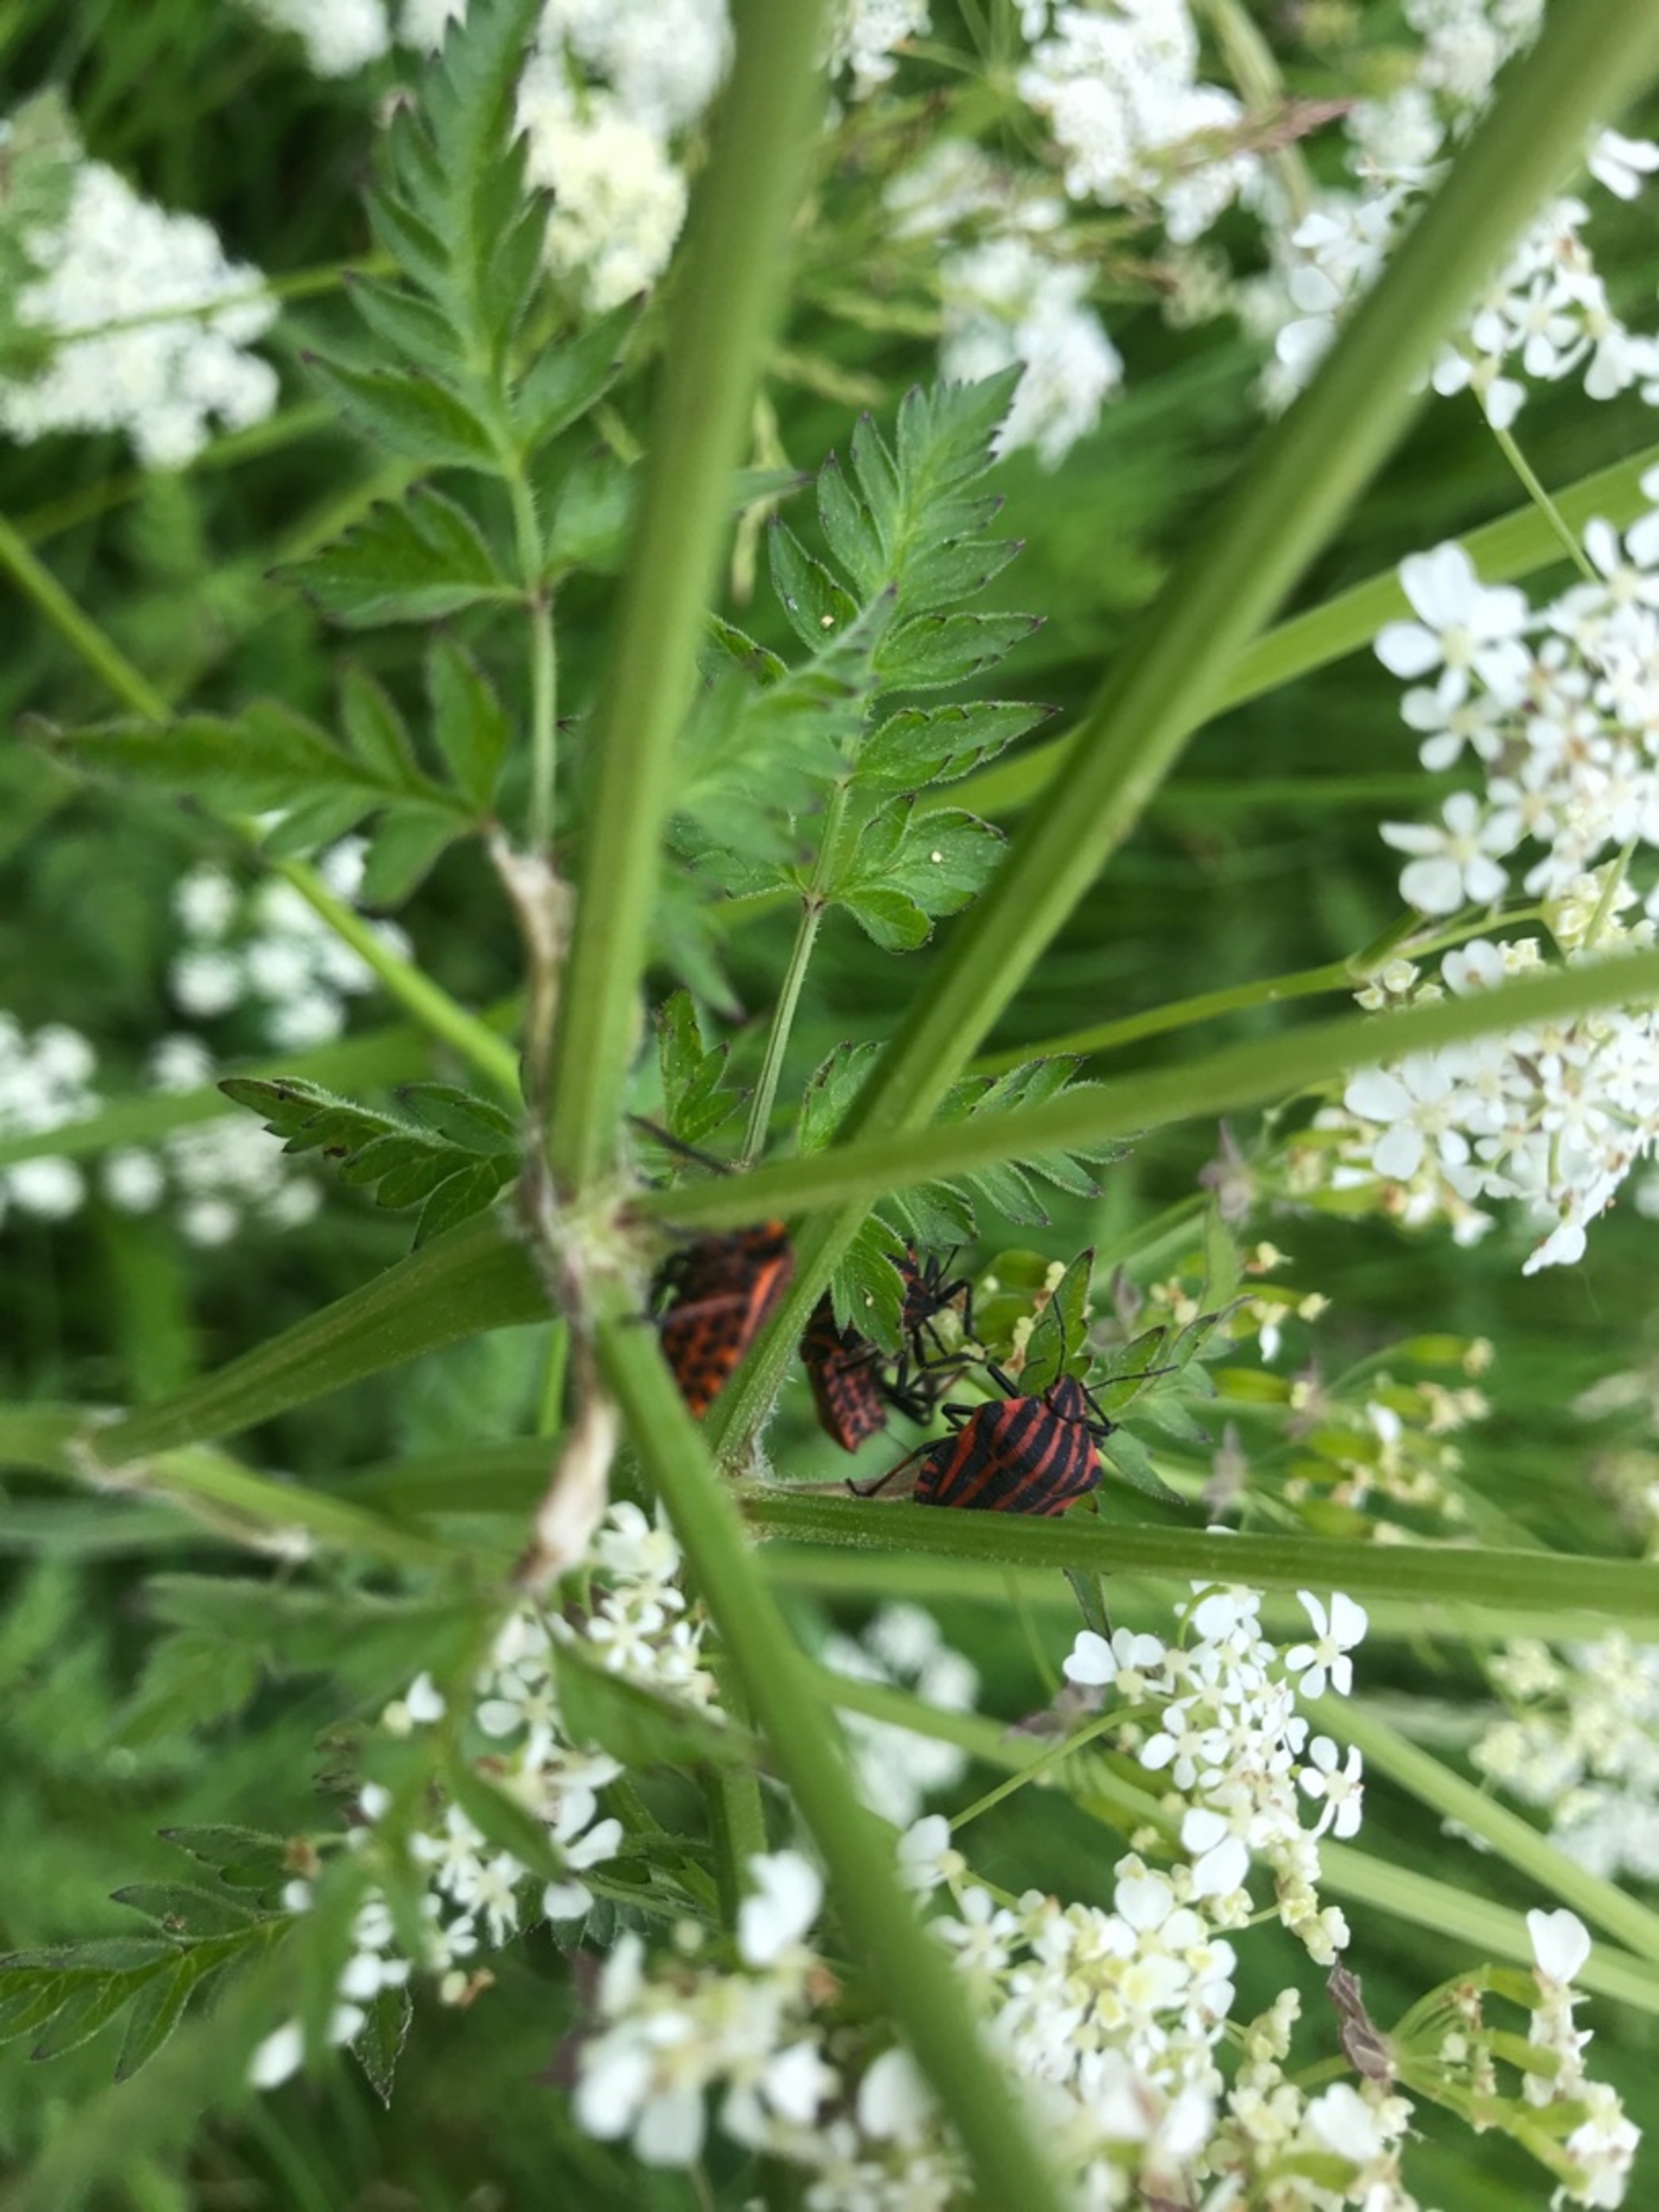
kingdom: Animalia
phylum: Arthropoda
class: Insecta
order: Hemiptera
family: Pentatomidae
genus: Graphosoma
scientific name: Graphosoma italicum
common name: Stribetæge
